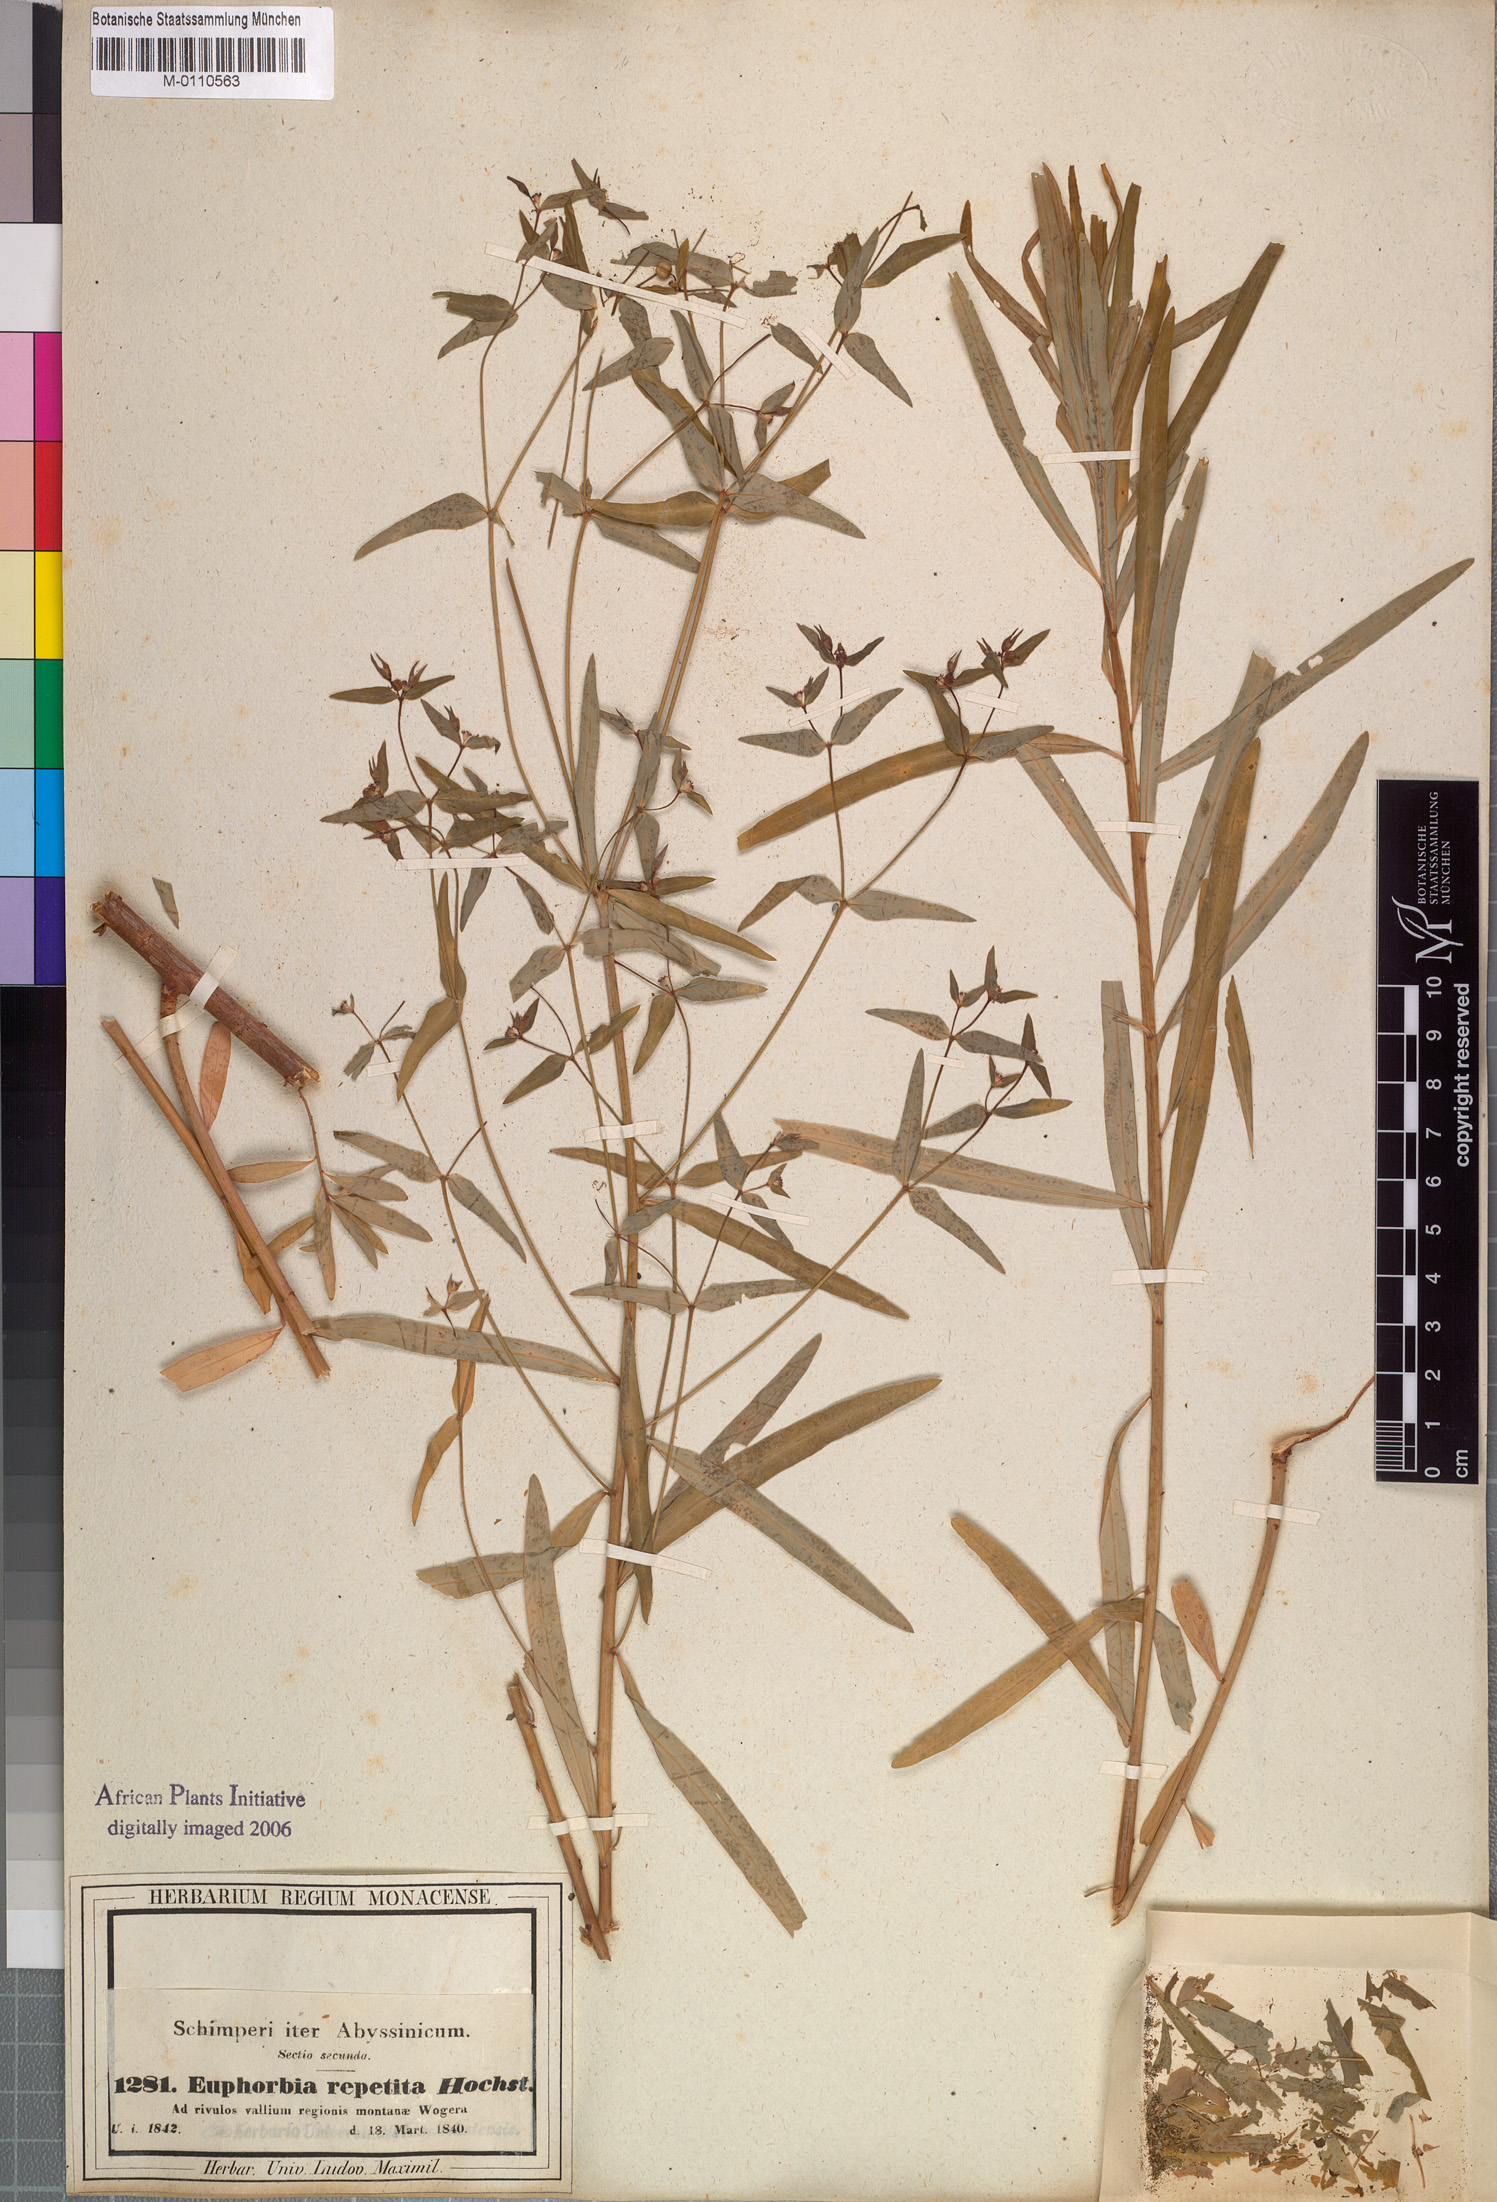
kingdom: Plantae
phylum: Tracheophyta
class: Magnoliopsida
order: Malpighiales
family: Euphorbiaceae
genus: Euphorbia
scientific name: Euphorbia repetita
